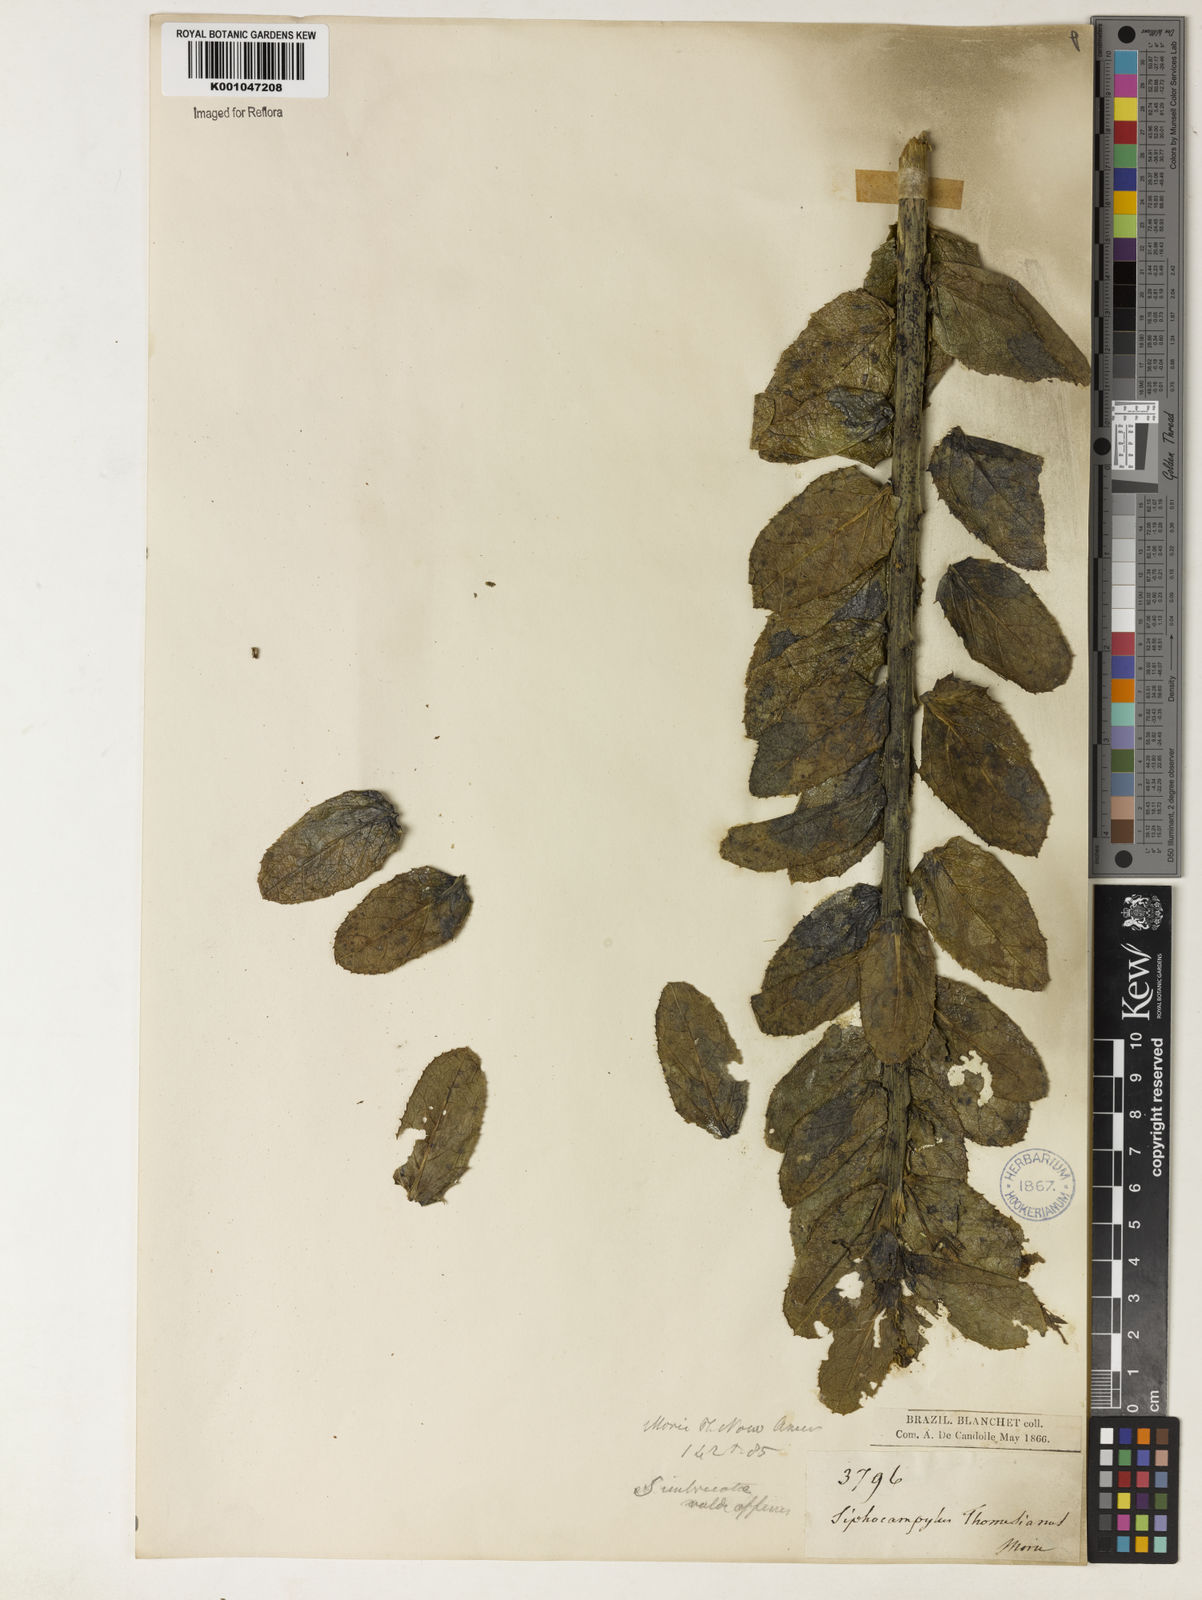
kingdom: Plantae
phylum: Tracheophyta
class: Magnoliopsida
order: Asterales
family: Campanulaceae
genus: Siphocampylus
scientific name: Siphocampylus imbricatus
